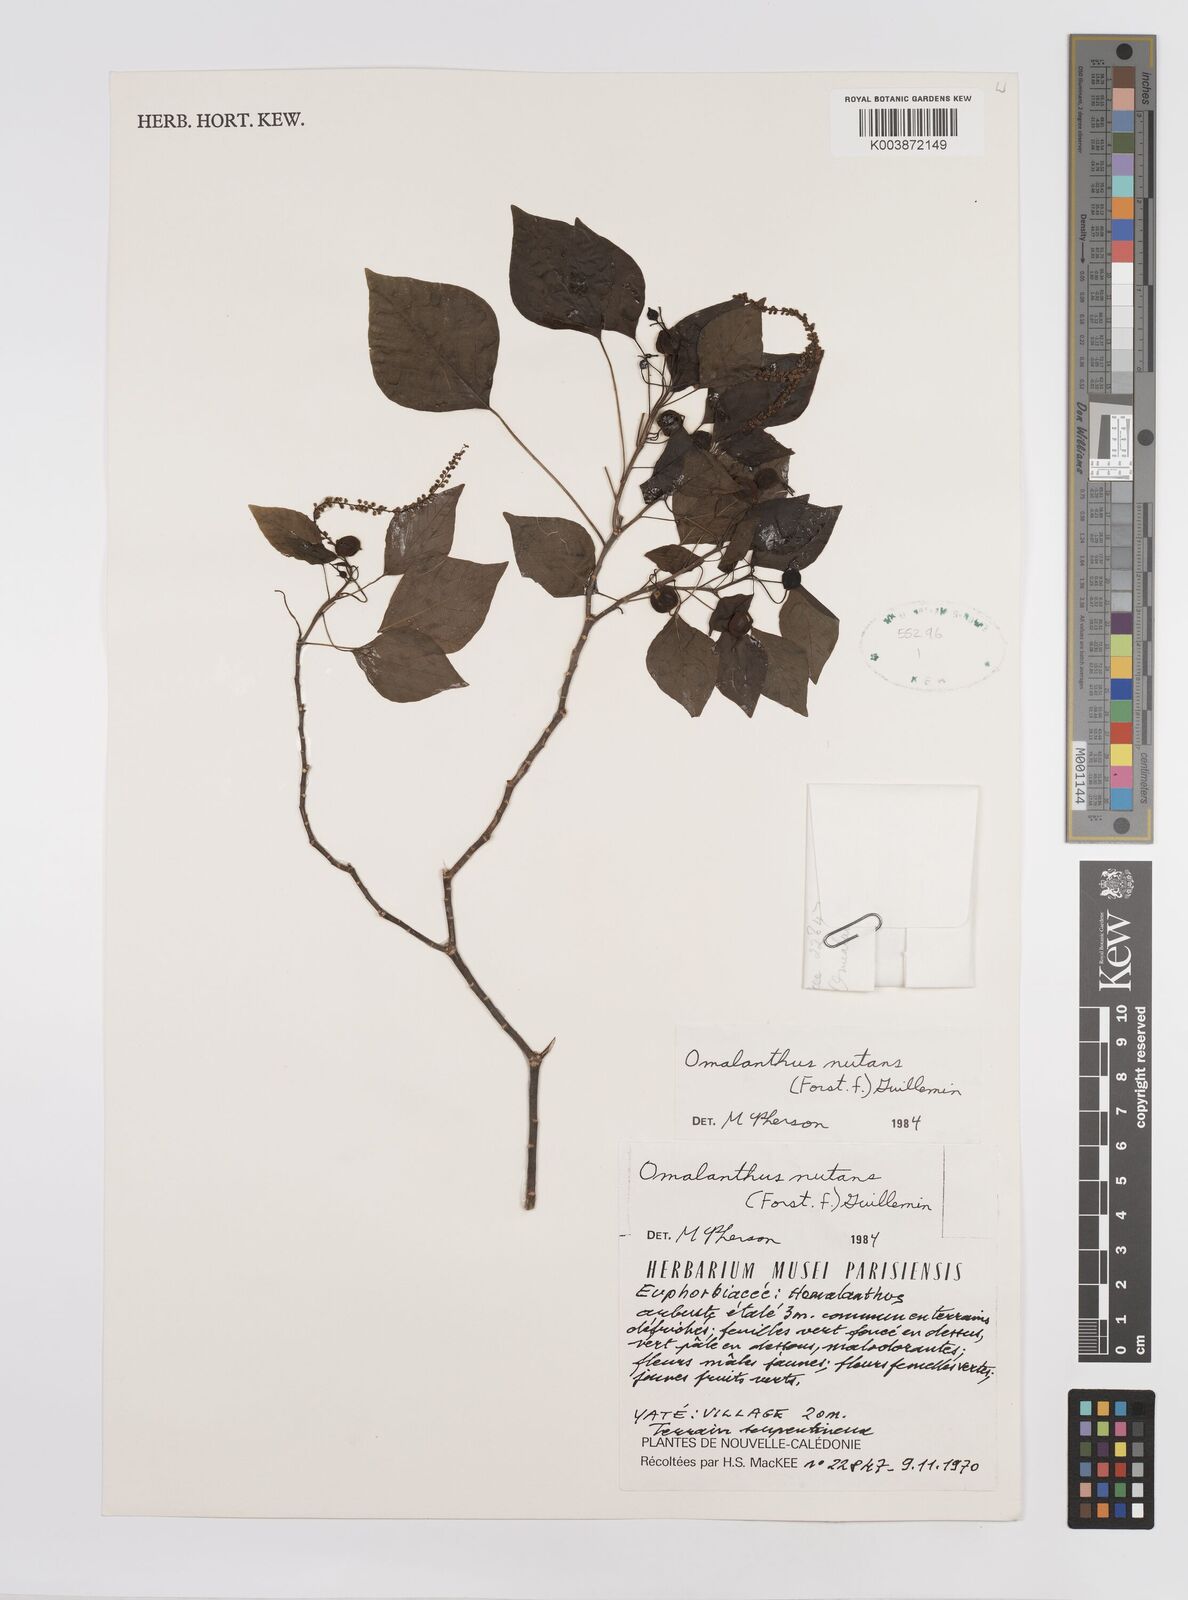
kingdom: Plantae
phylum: Tracheophyta
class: Magnoliopsida
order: Malpighiales
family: Euphorbiaceae
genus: Homalanthus
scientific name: Homalanthus nutans
